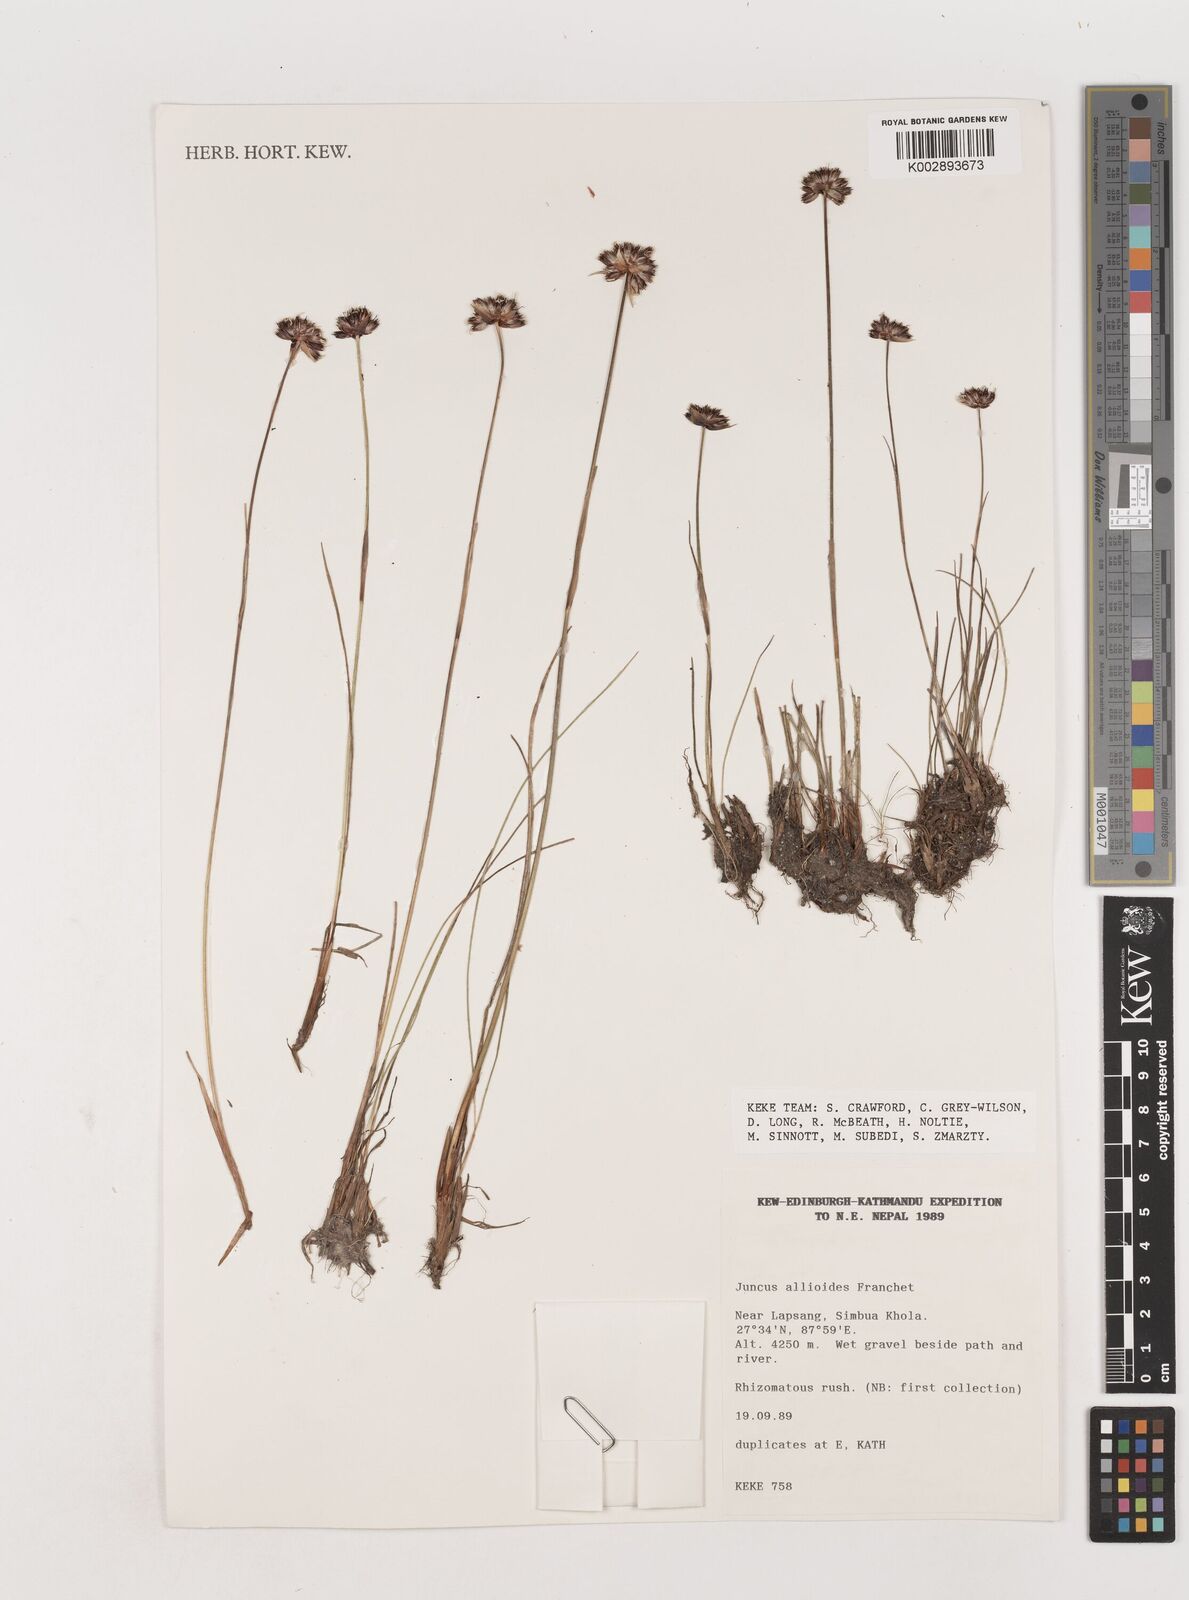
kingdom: Plantae
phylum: Tracheophyta
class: Liliopsida
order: Poales
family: Juncaceae
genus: Juncus
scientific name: Juncus allioides
